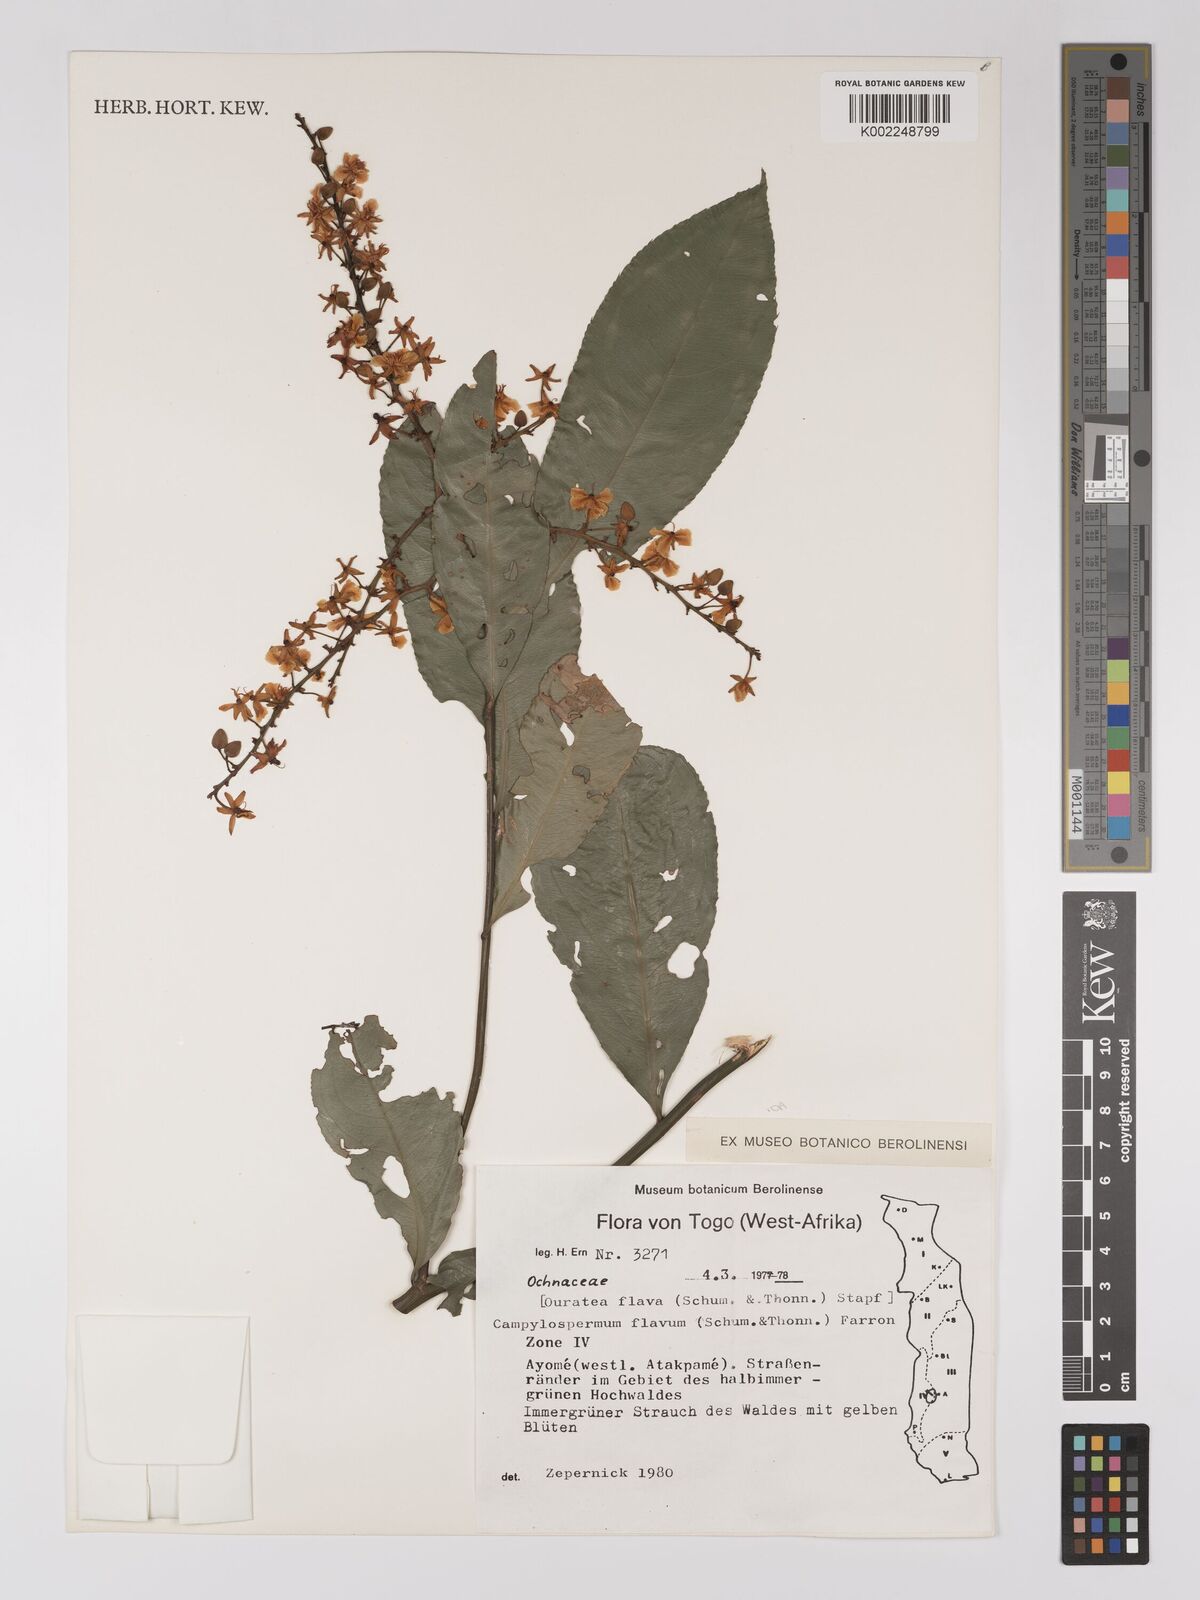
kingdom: Plantae
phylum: Tracheophyta
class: Magnoliopsida
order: Malpighiales
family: Ochnaceae
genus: Campylospermum
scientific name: Campylospermum flavum
